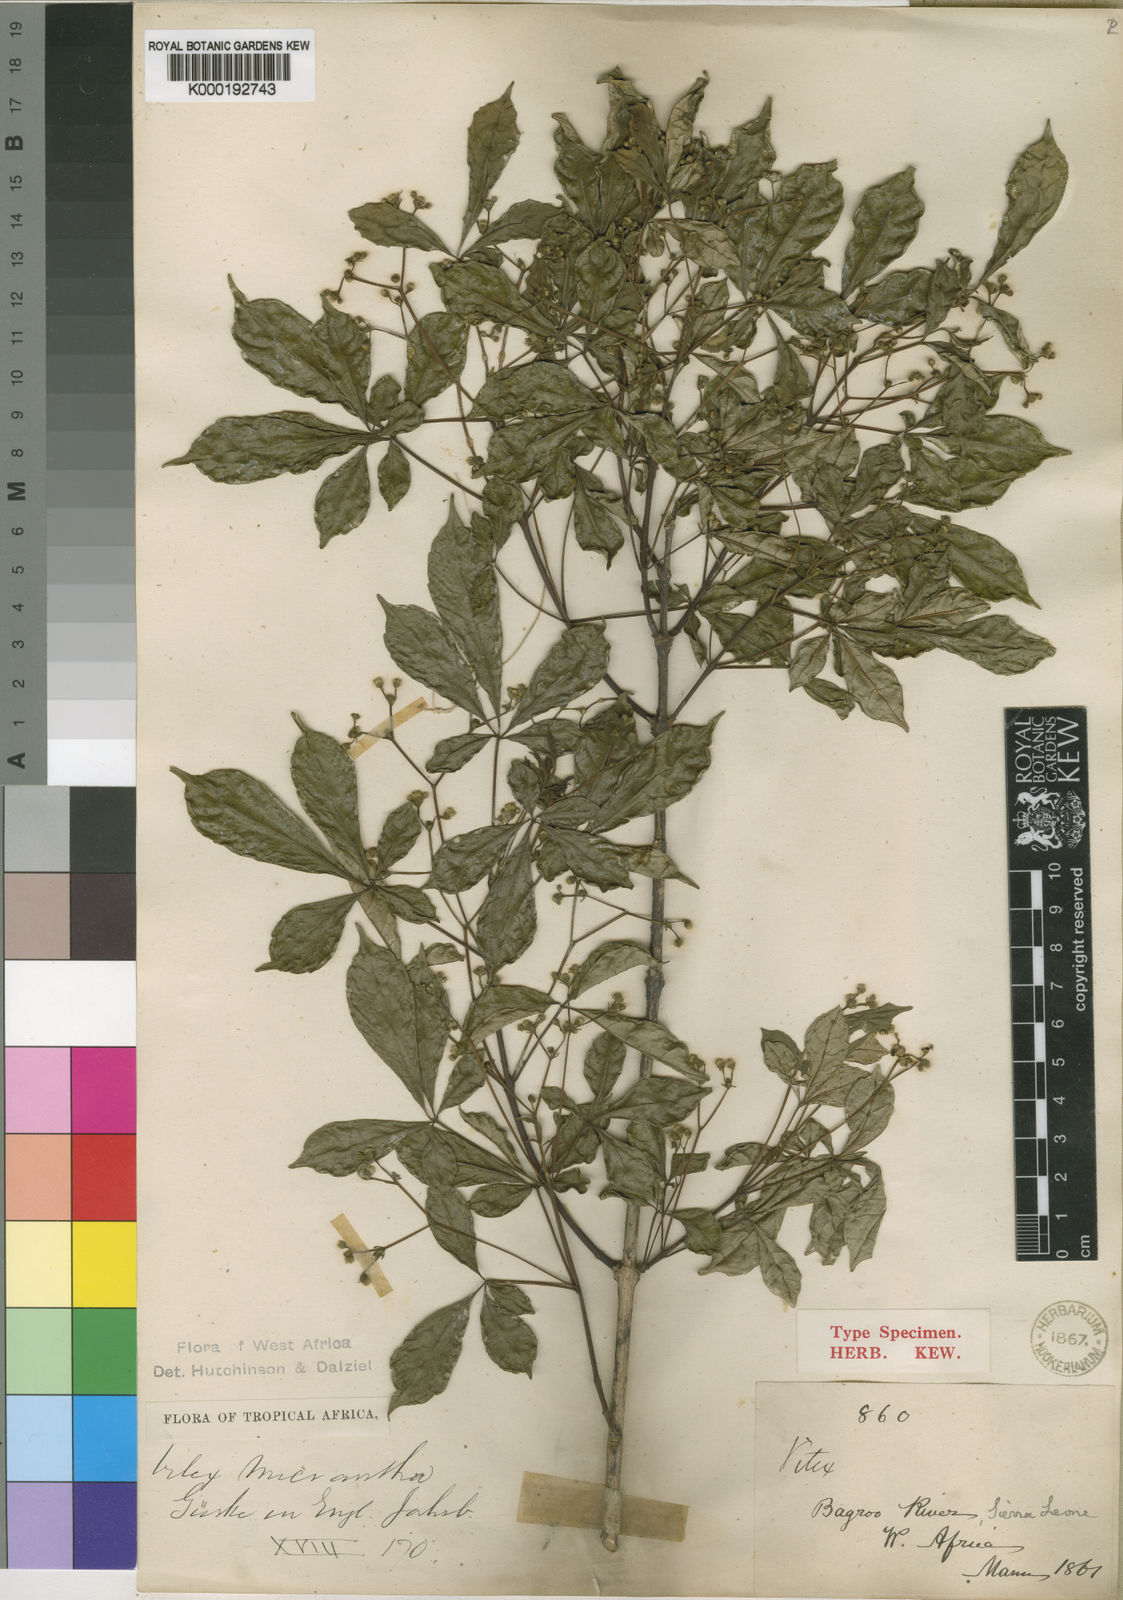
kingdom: Plantae
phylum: Tracheophyta
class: Magnoliopsida
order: Lamiales
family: Lamiaceae
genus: Vitex
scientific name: Vitex
